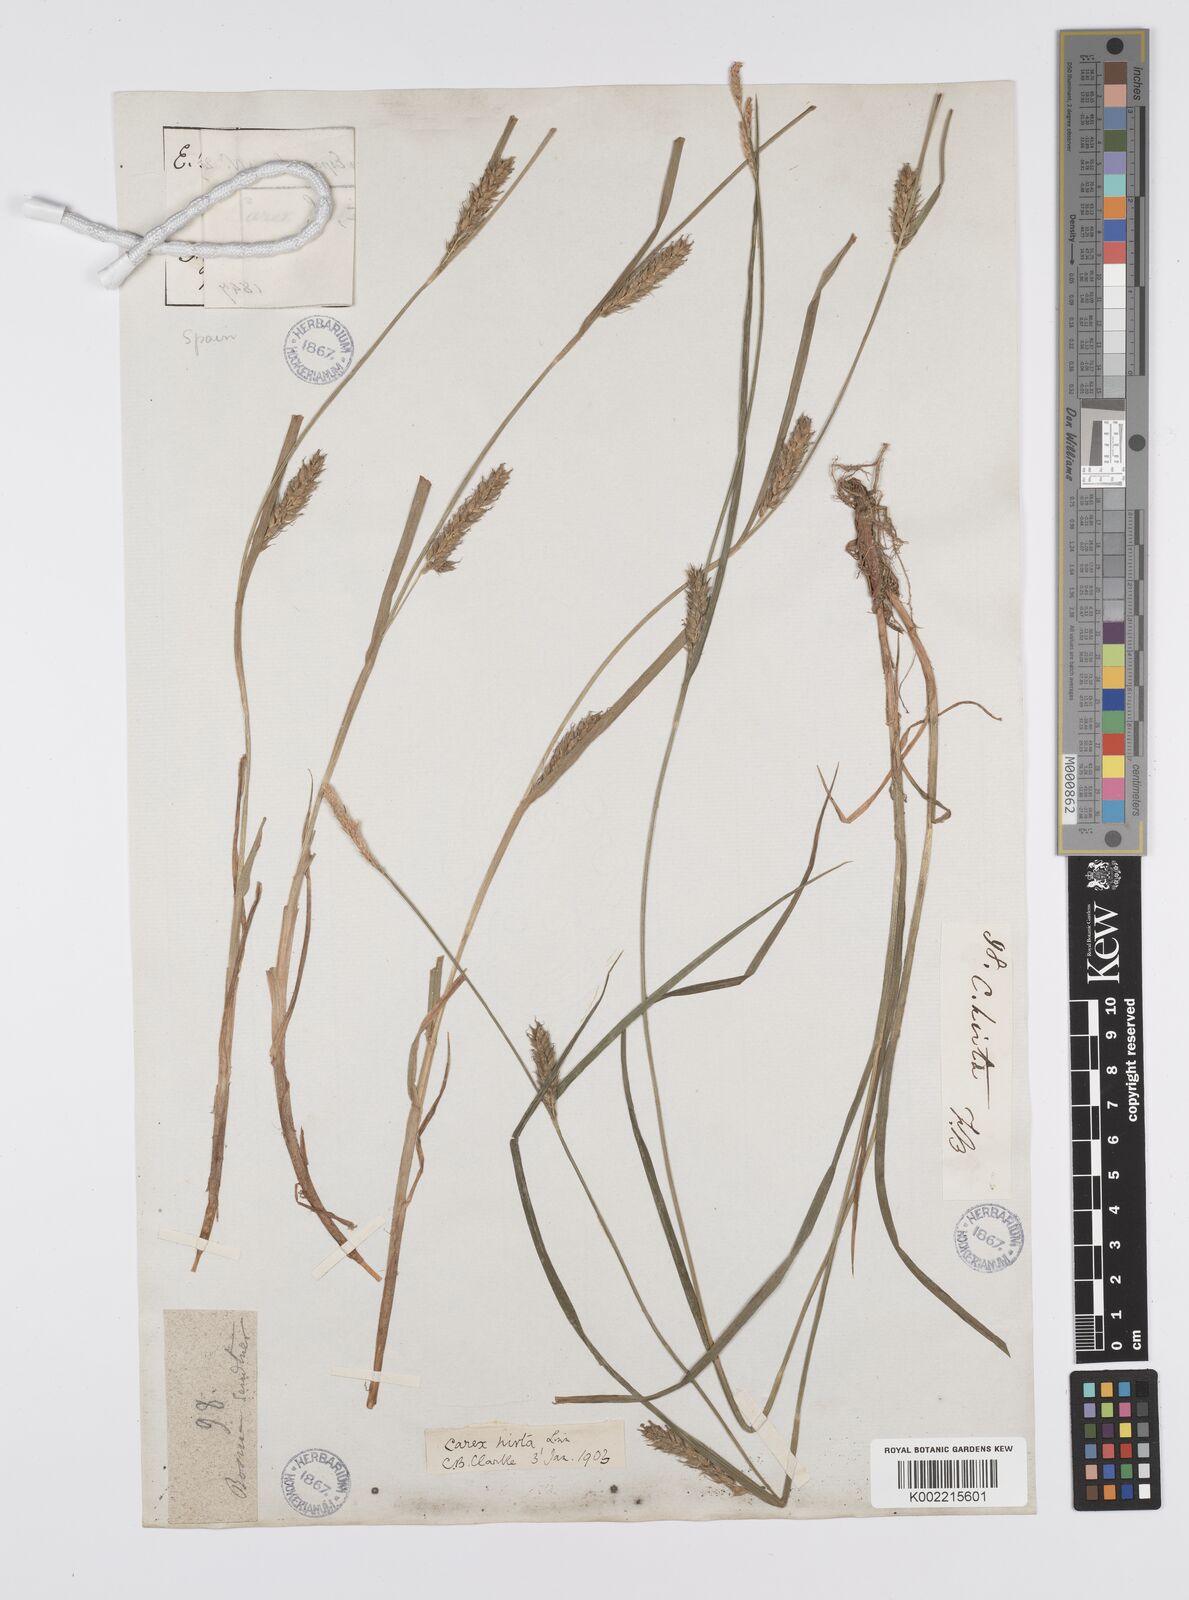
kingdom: Plantae
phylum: Tracheophyta
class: Liliopsida
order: Poales
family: Cyperaceae
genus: Carex
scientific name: Carex hirta
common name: Hairy sedge
